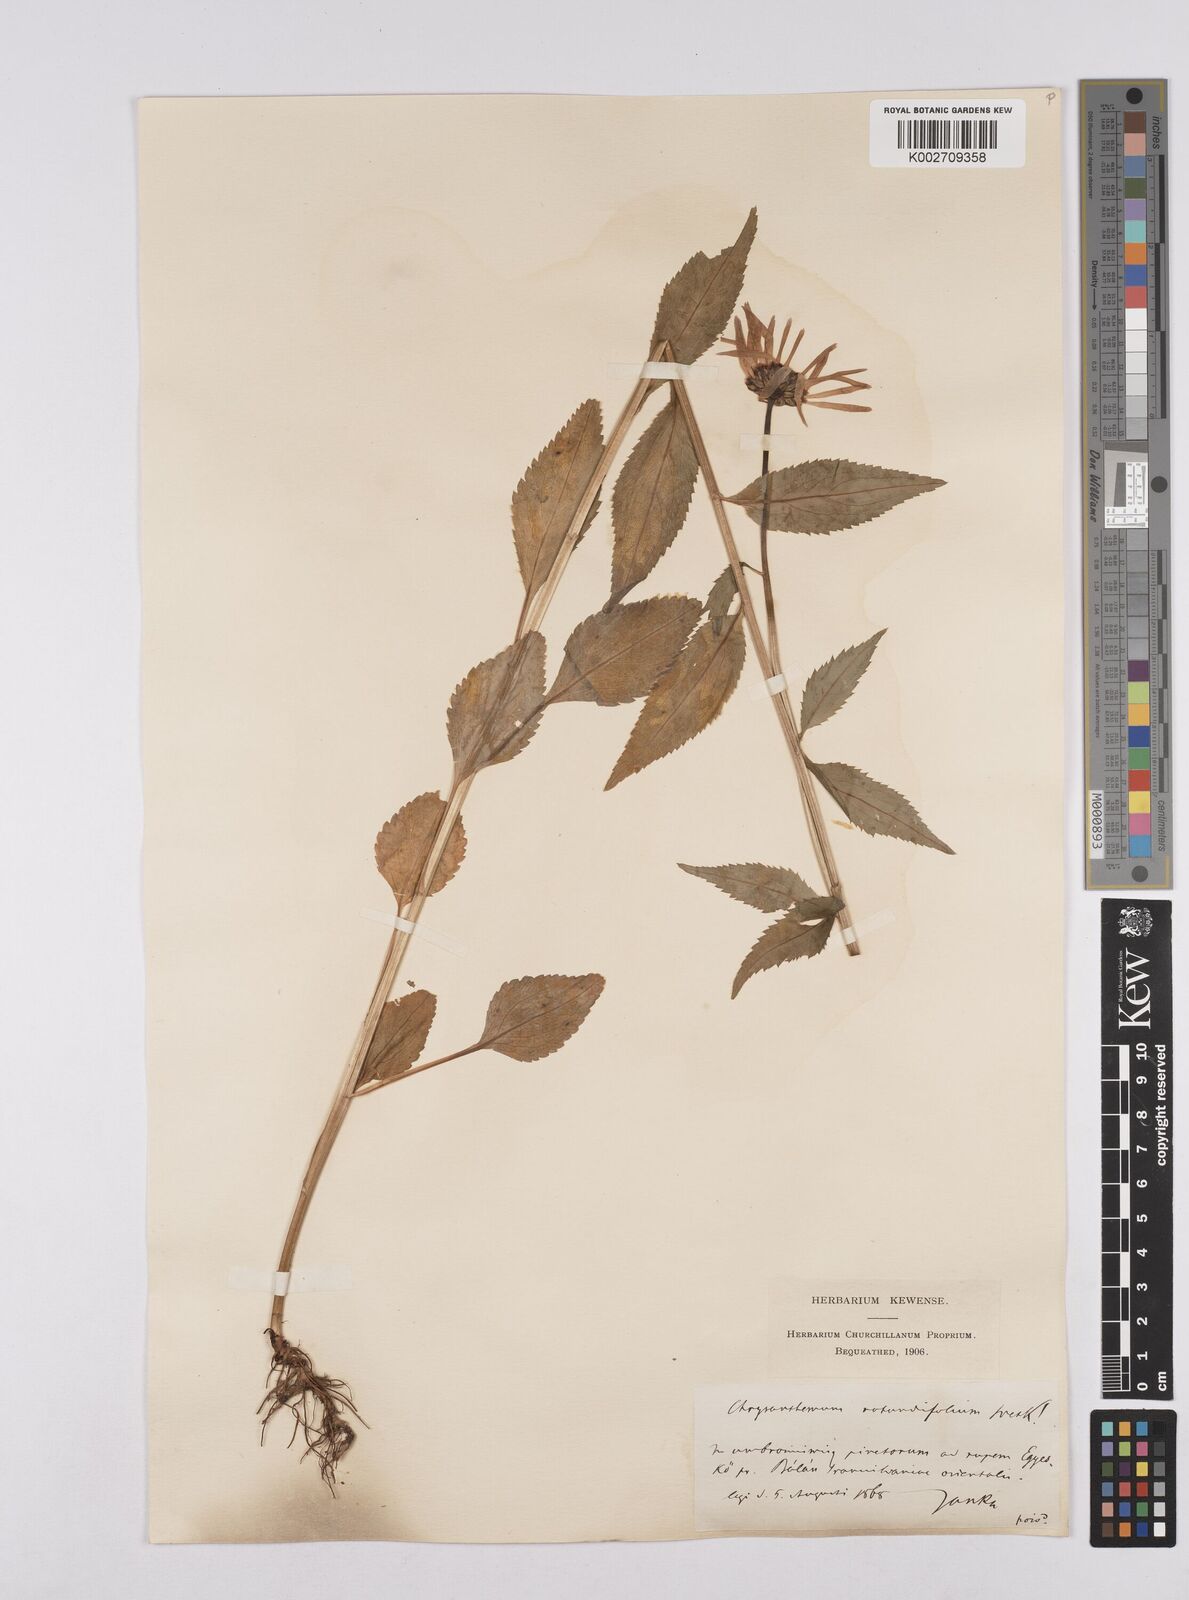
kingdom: Plantae
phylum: Tracheophyta
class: Magnoliopsida
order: Asterales
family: Asteraceae
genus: Leucanthemum
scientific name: Leucanthemum rotundifolium
